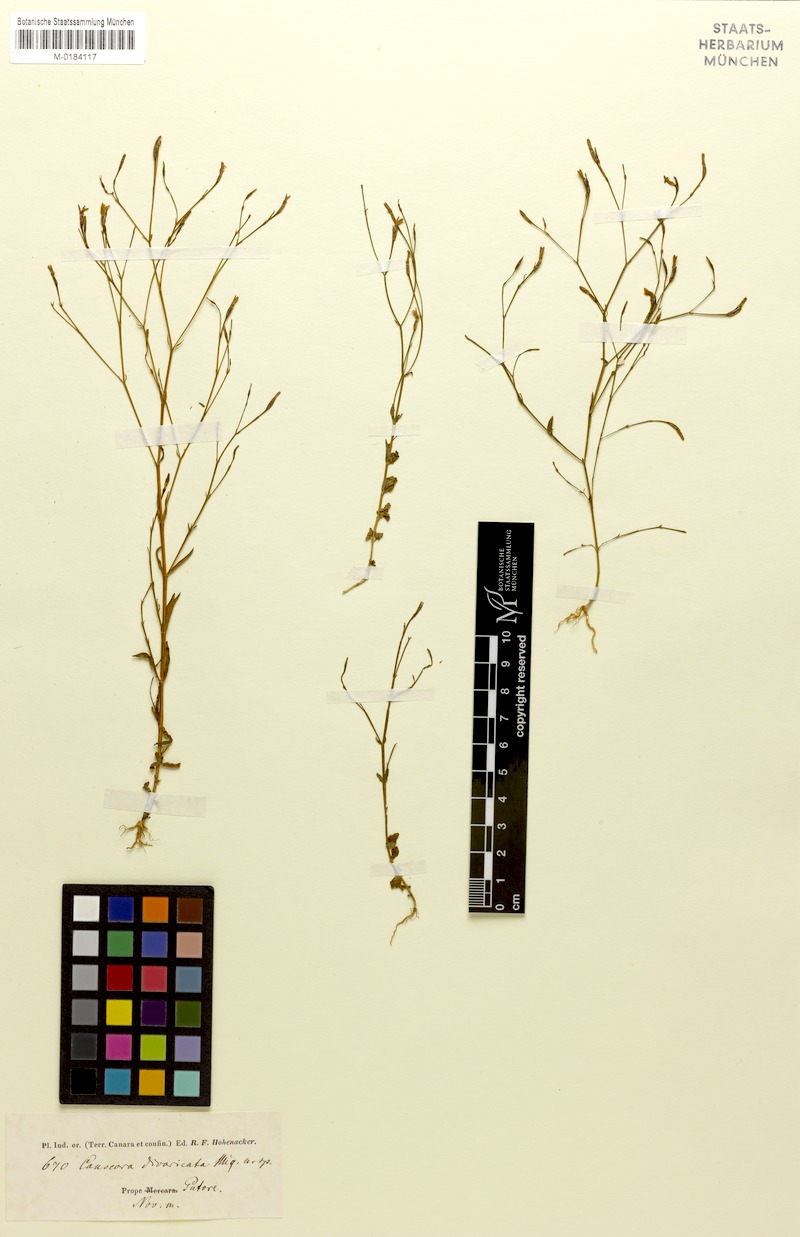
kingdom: Plantae
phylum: Tracheophyta
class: Magnoliopsida
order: Gentianales
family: Gentianaceae
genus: Canscora
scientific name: Canscora diffusa
